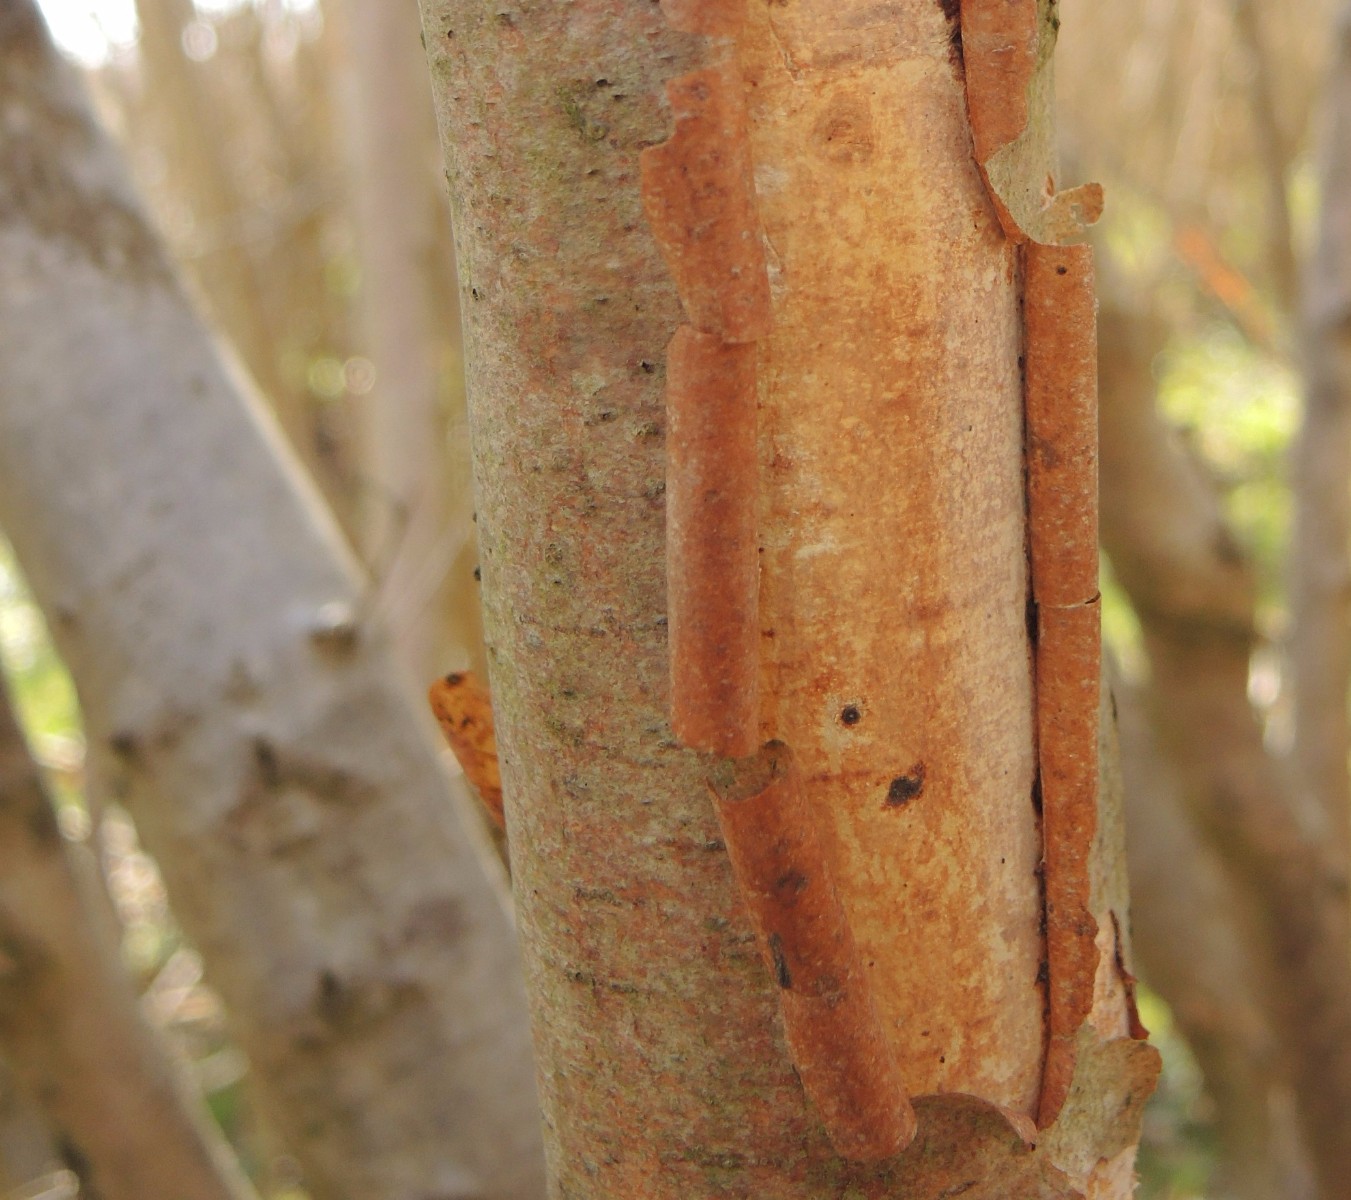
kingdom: Fungi
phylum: Basidiomycota
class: Agaricomycetes
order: Corticiales
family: Vuilleminiaceae
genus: Vuilleminia
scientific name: Vuilleminia coryli
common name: hassel-barksprænger
